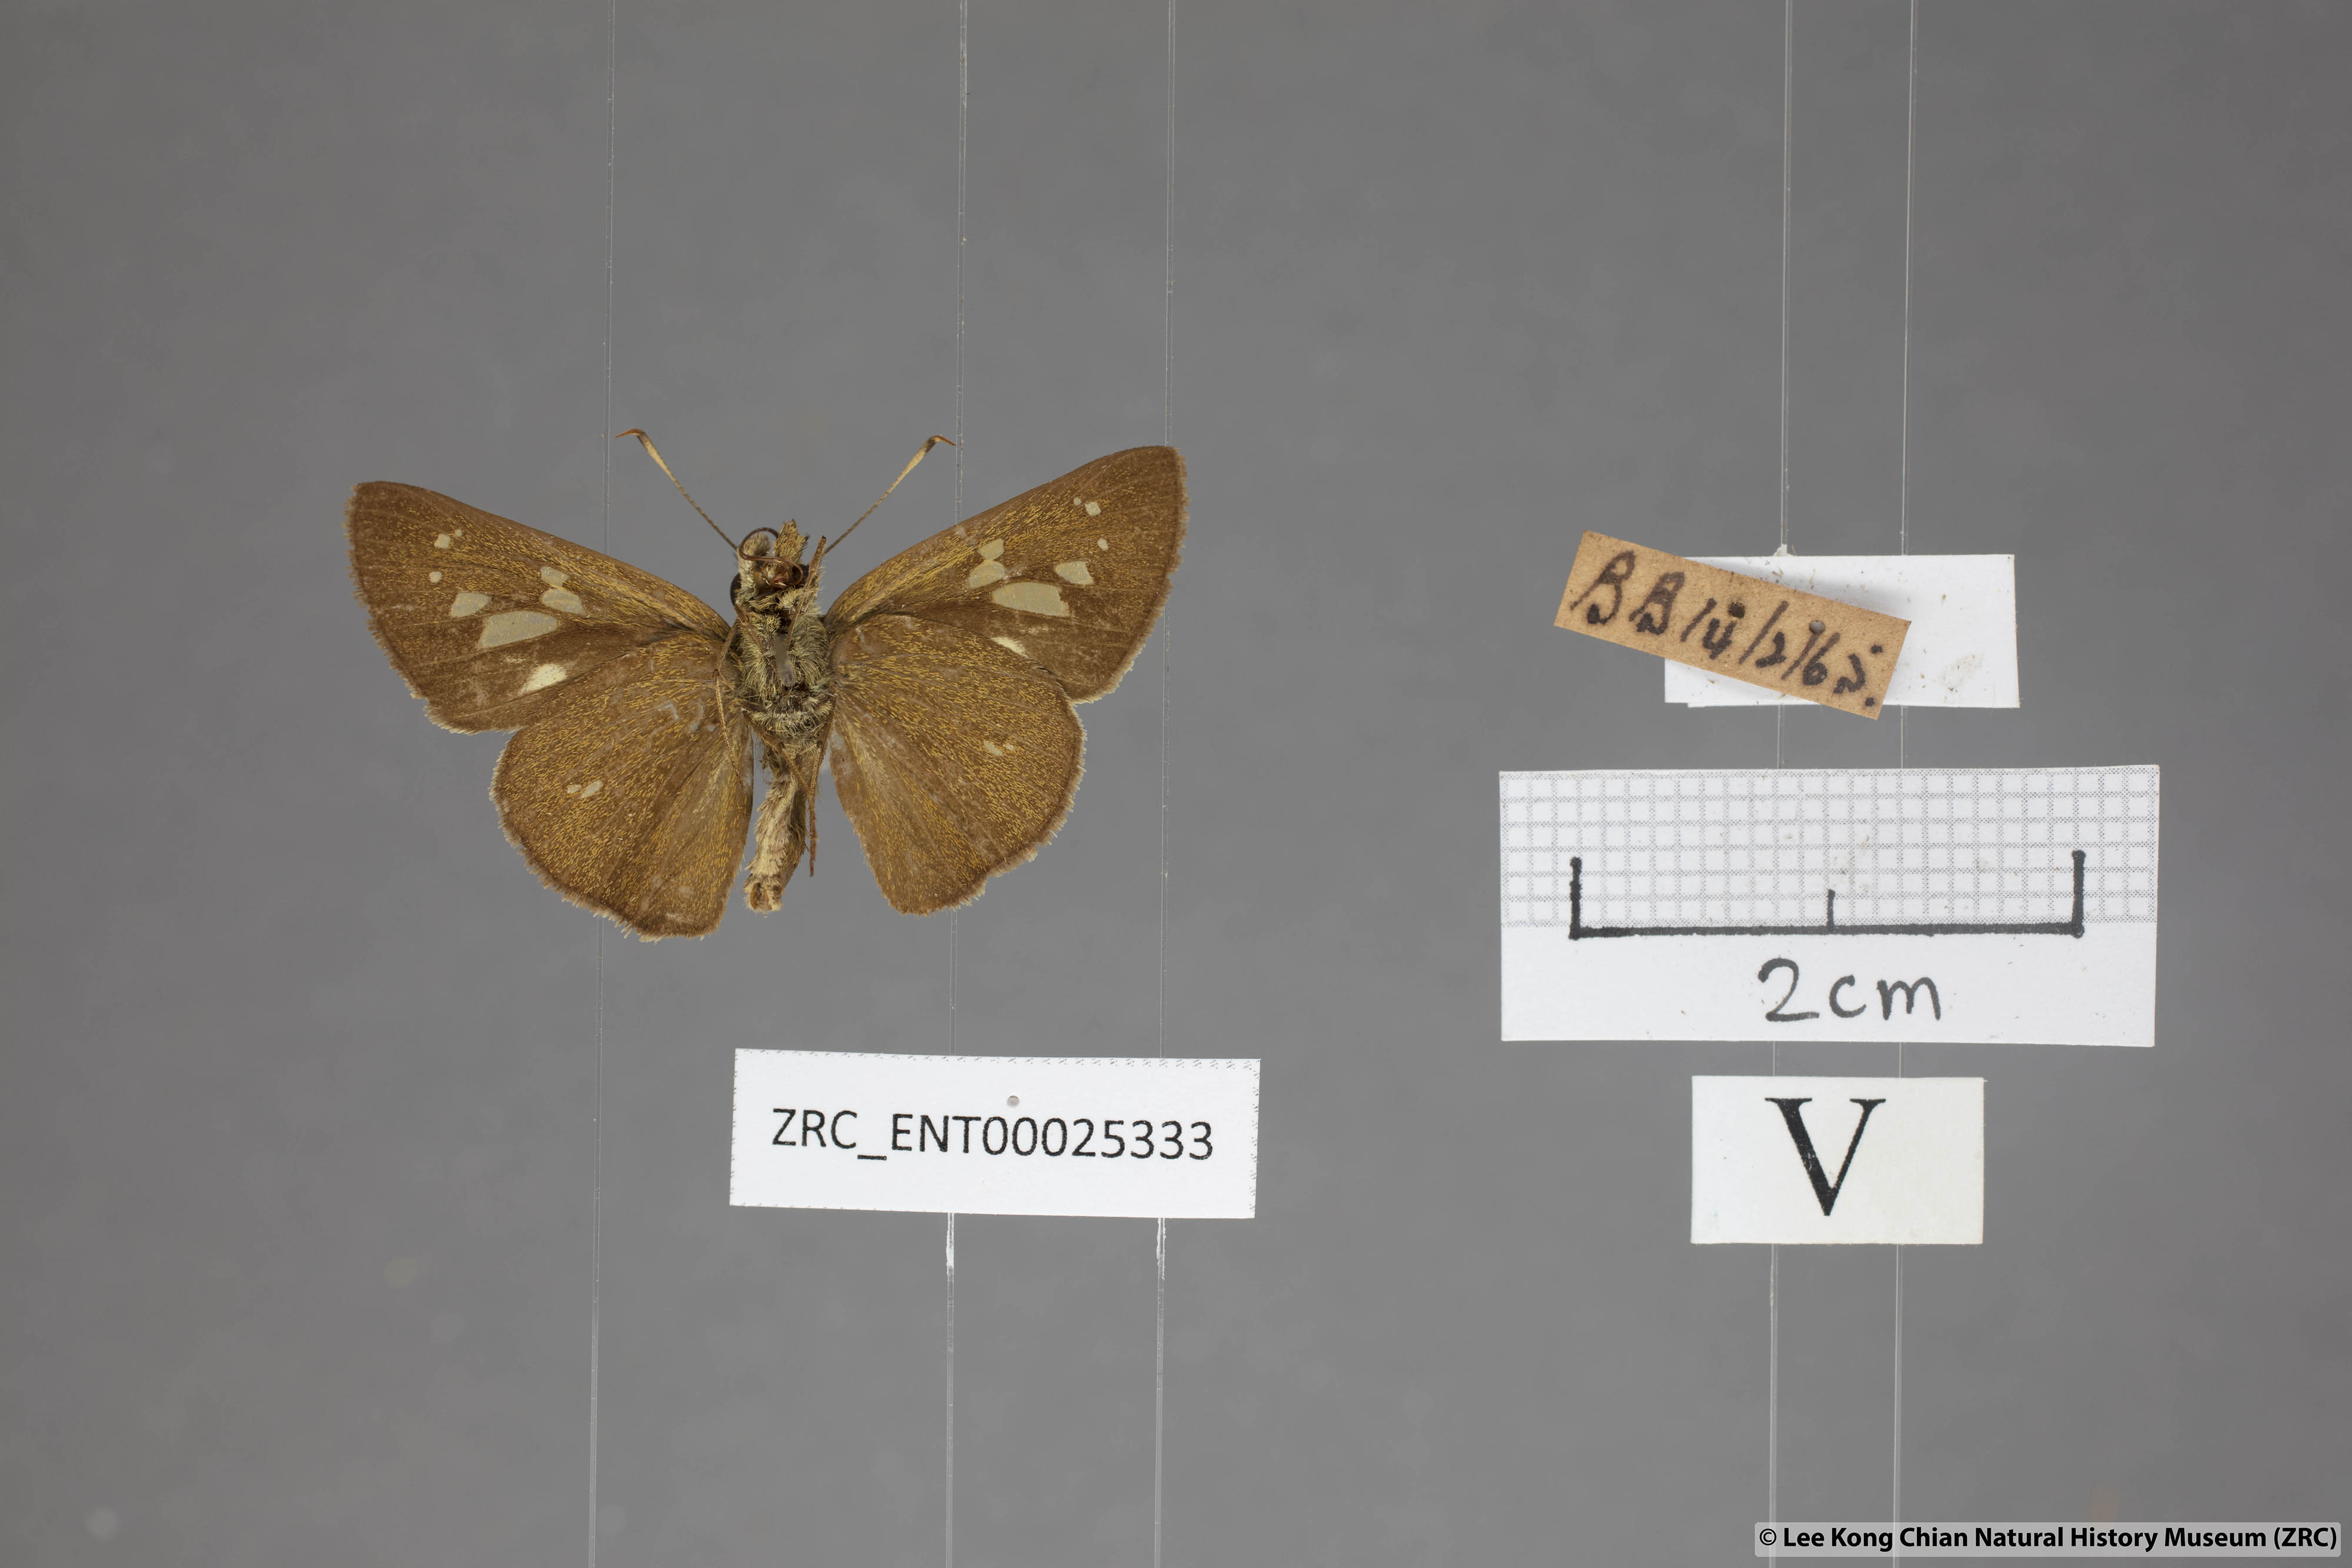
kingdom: Animalia
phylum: Arthropoda
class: Insecta
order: Lepidoptera
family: Hesperiidae
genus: Polytremis
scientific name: Polytremis lubricans
